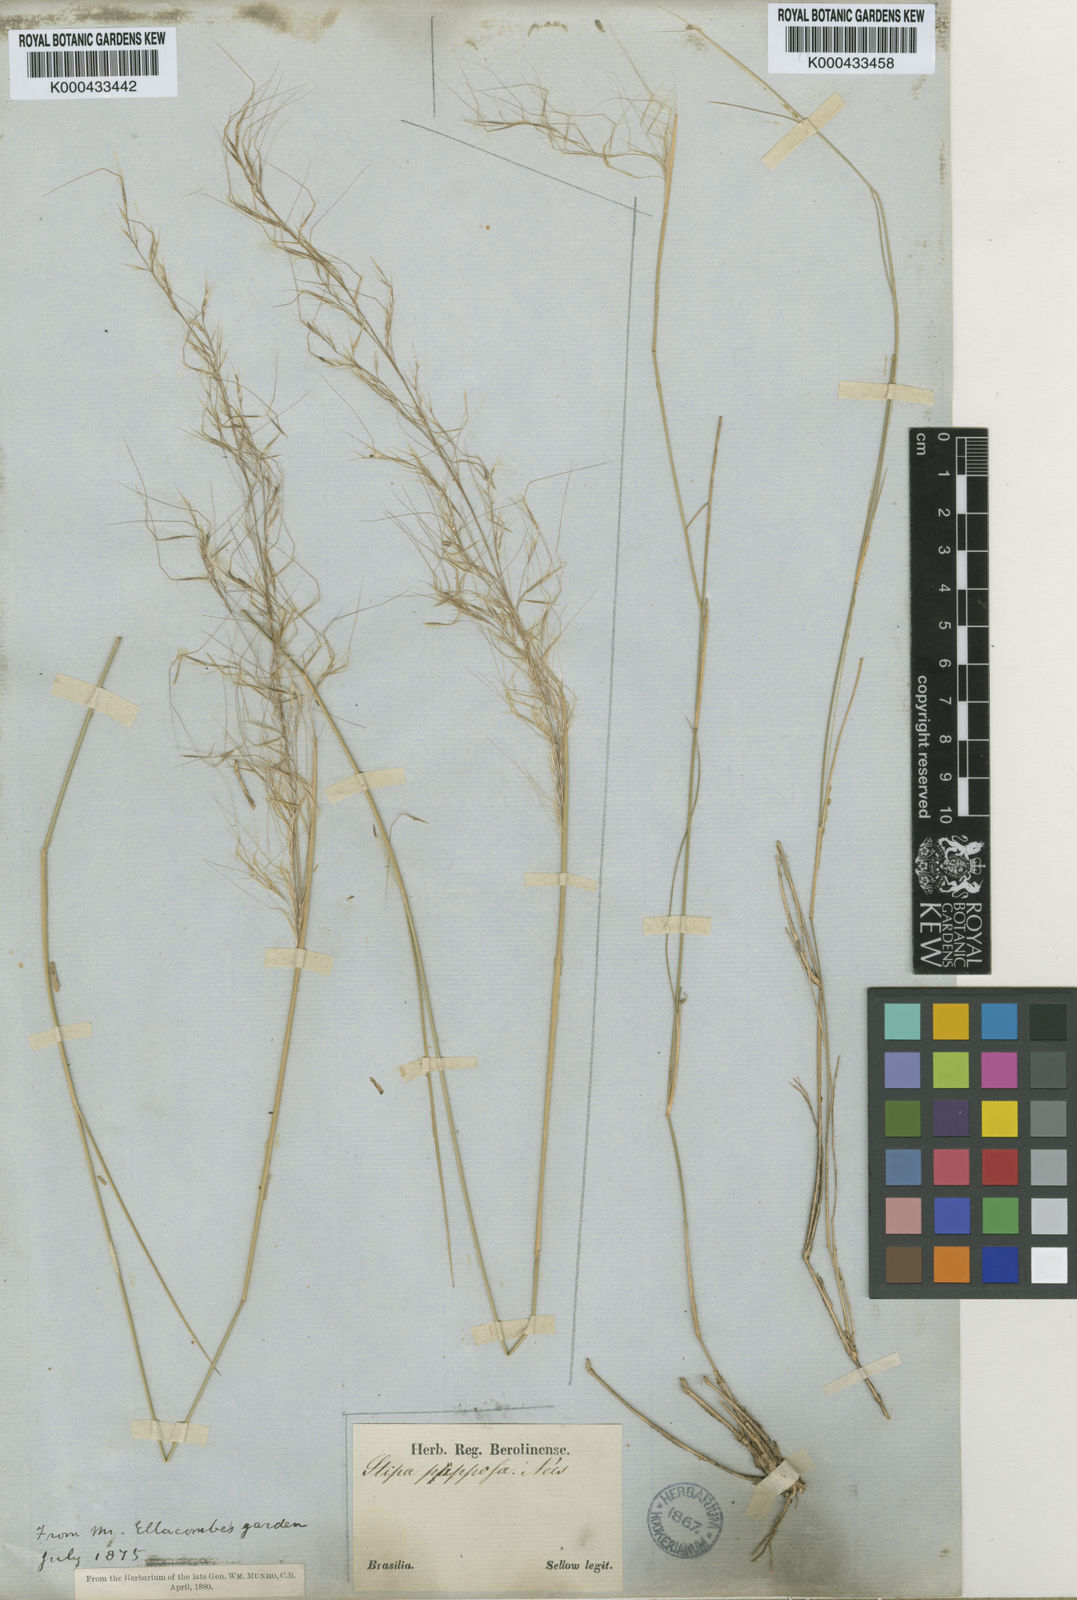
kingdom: Plantae
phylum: Tracheophyta
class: Liliopsida
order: Poales
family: Poaceae
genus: Jarava
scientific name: Jarava plumosa
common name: South american rice grass
